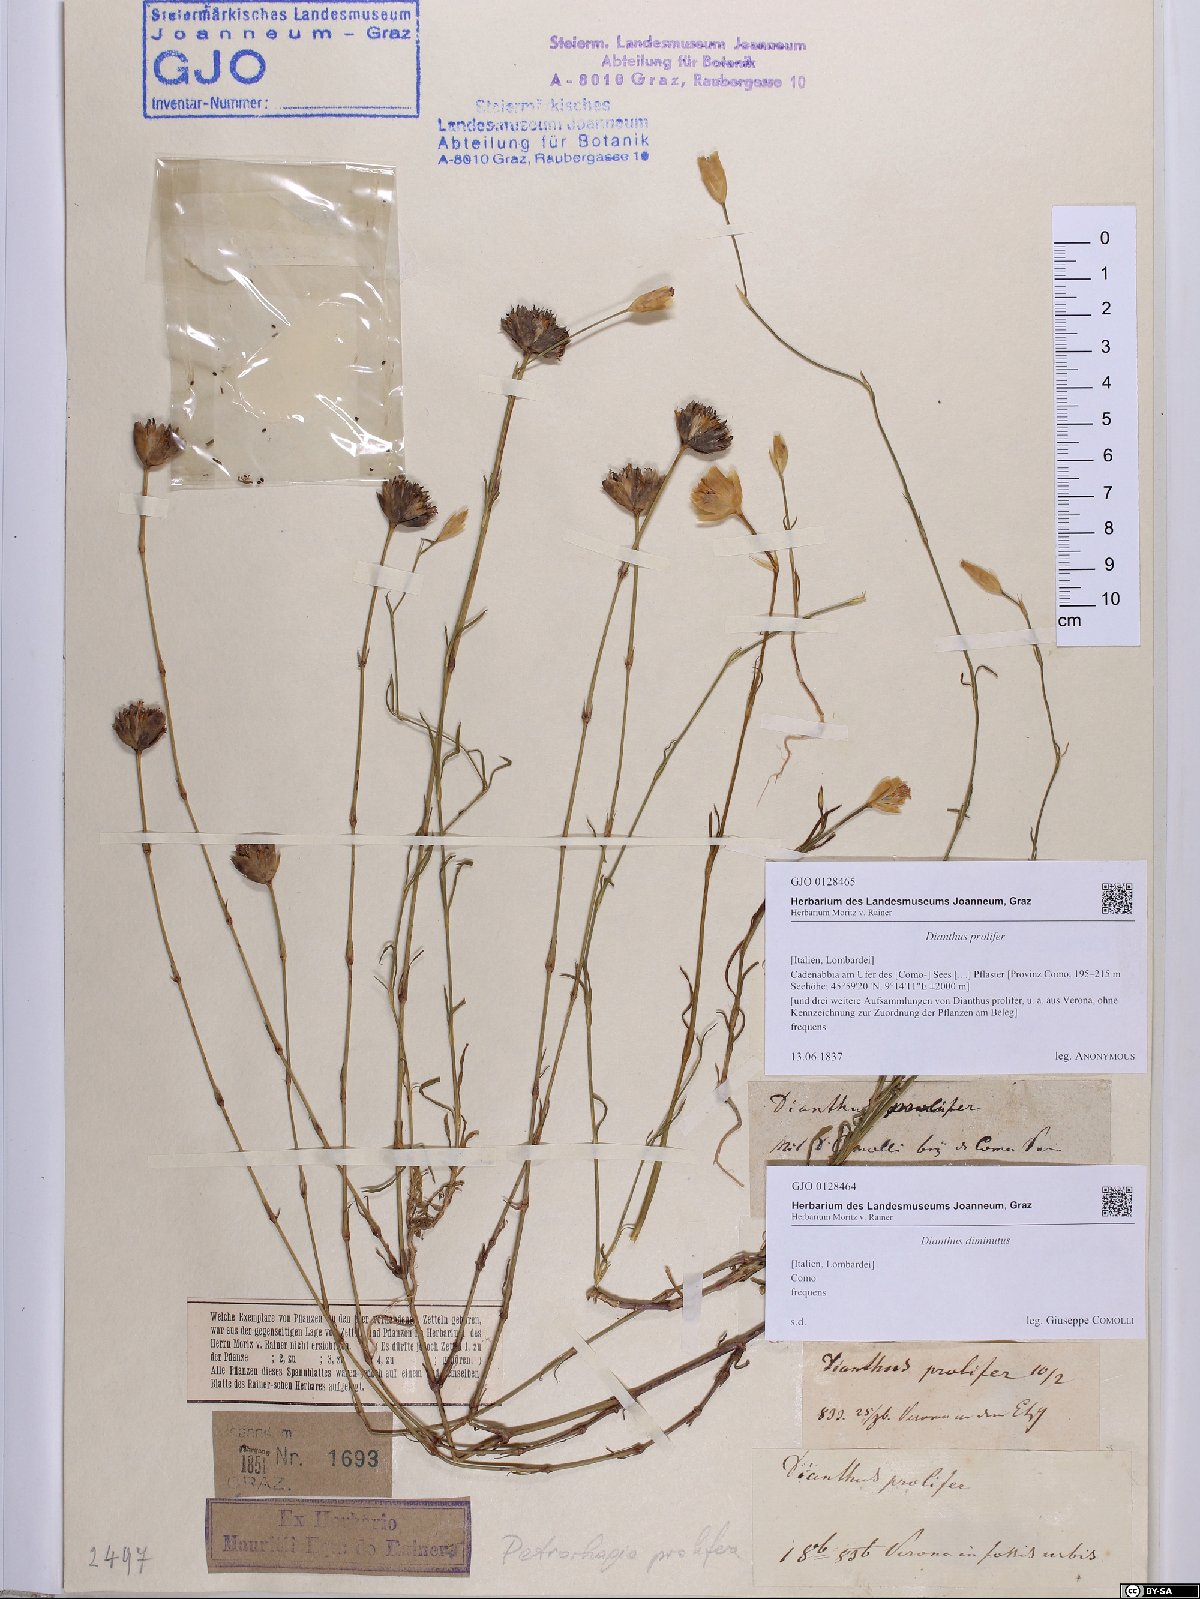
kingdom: Plantae
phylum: Tracheophyta
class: Magnoliopsida
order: Caryophyllales
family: Caryophyllaceae
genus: Petrorhagia
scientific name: Petrorhagia prolifera
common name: Proliferous pink
